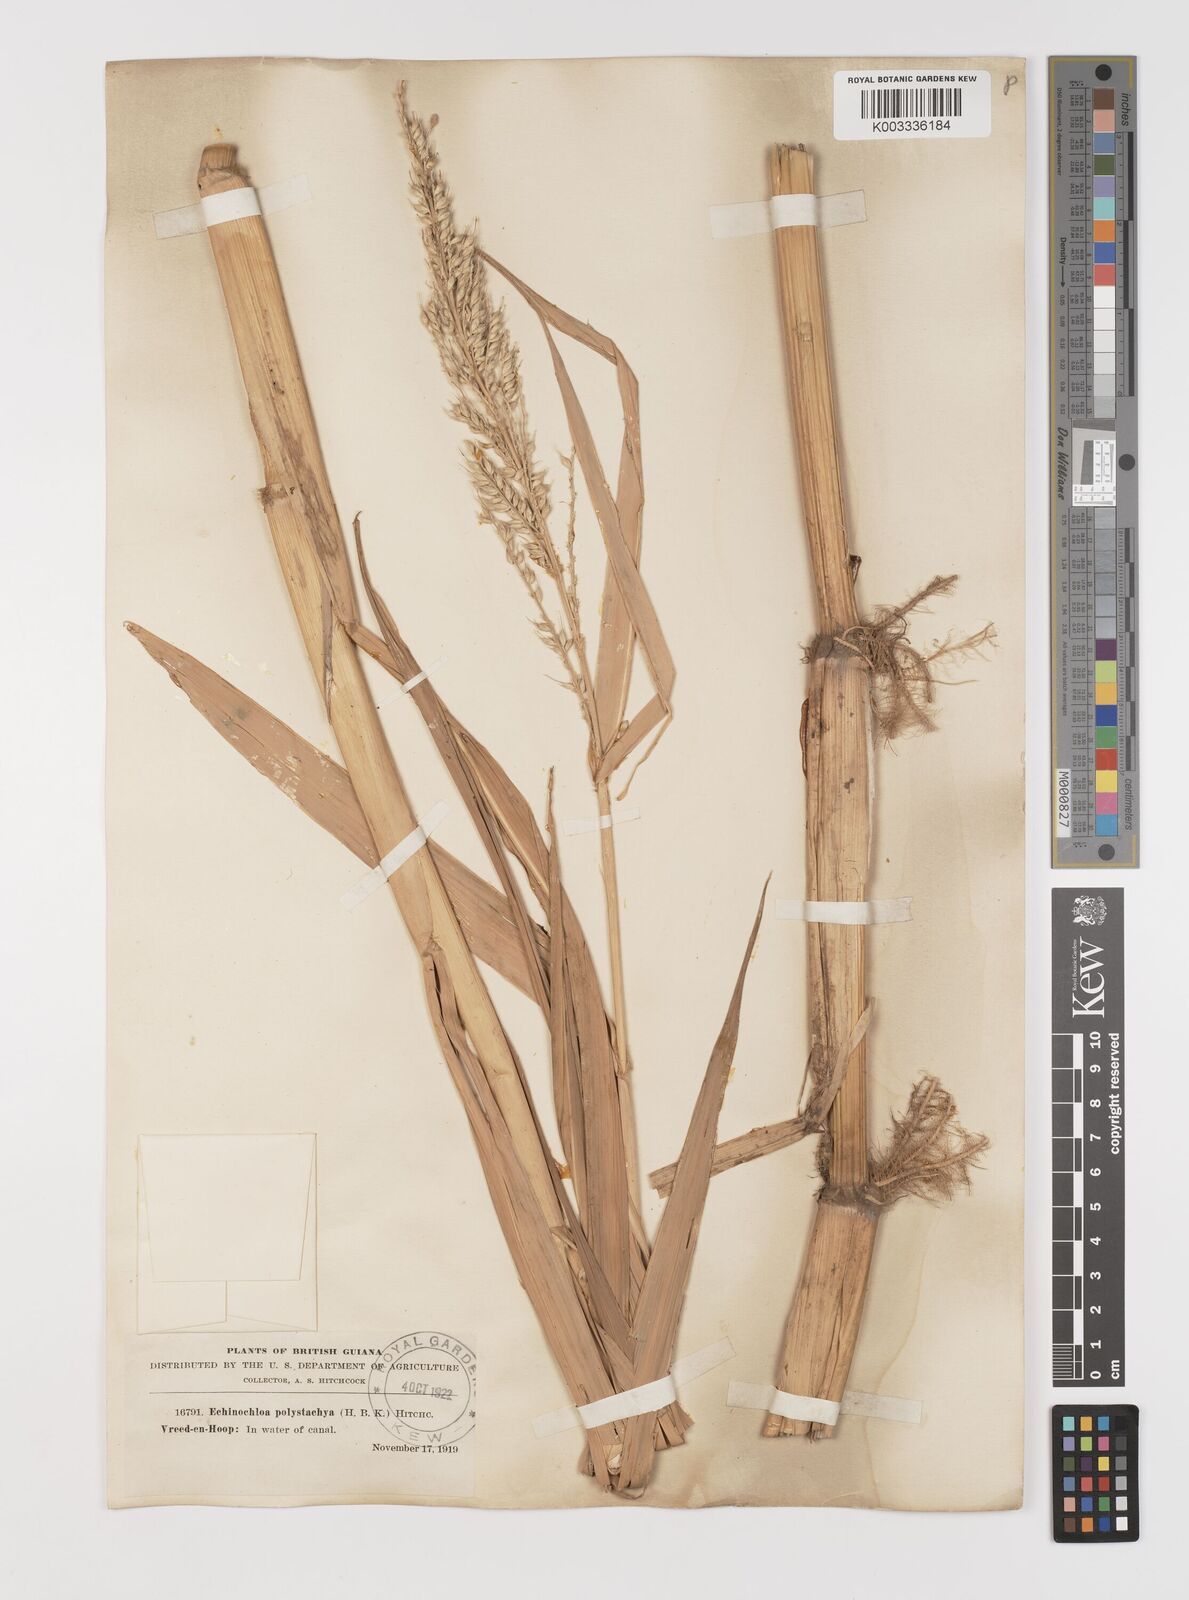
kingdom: Plantae
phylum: Tracheophyta
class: Liliopsida
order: Poales
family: Poaceae
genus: Pseudechinolaena
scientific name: Pseudechinolaena polystachya
